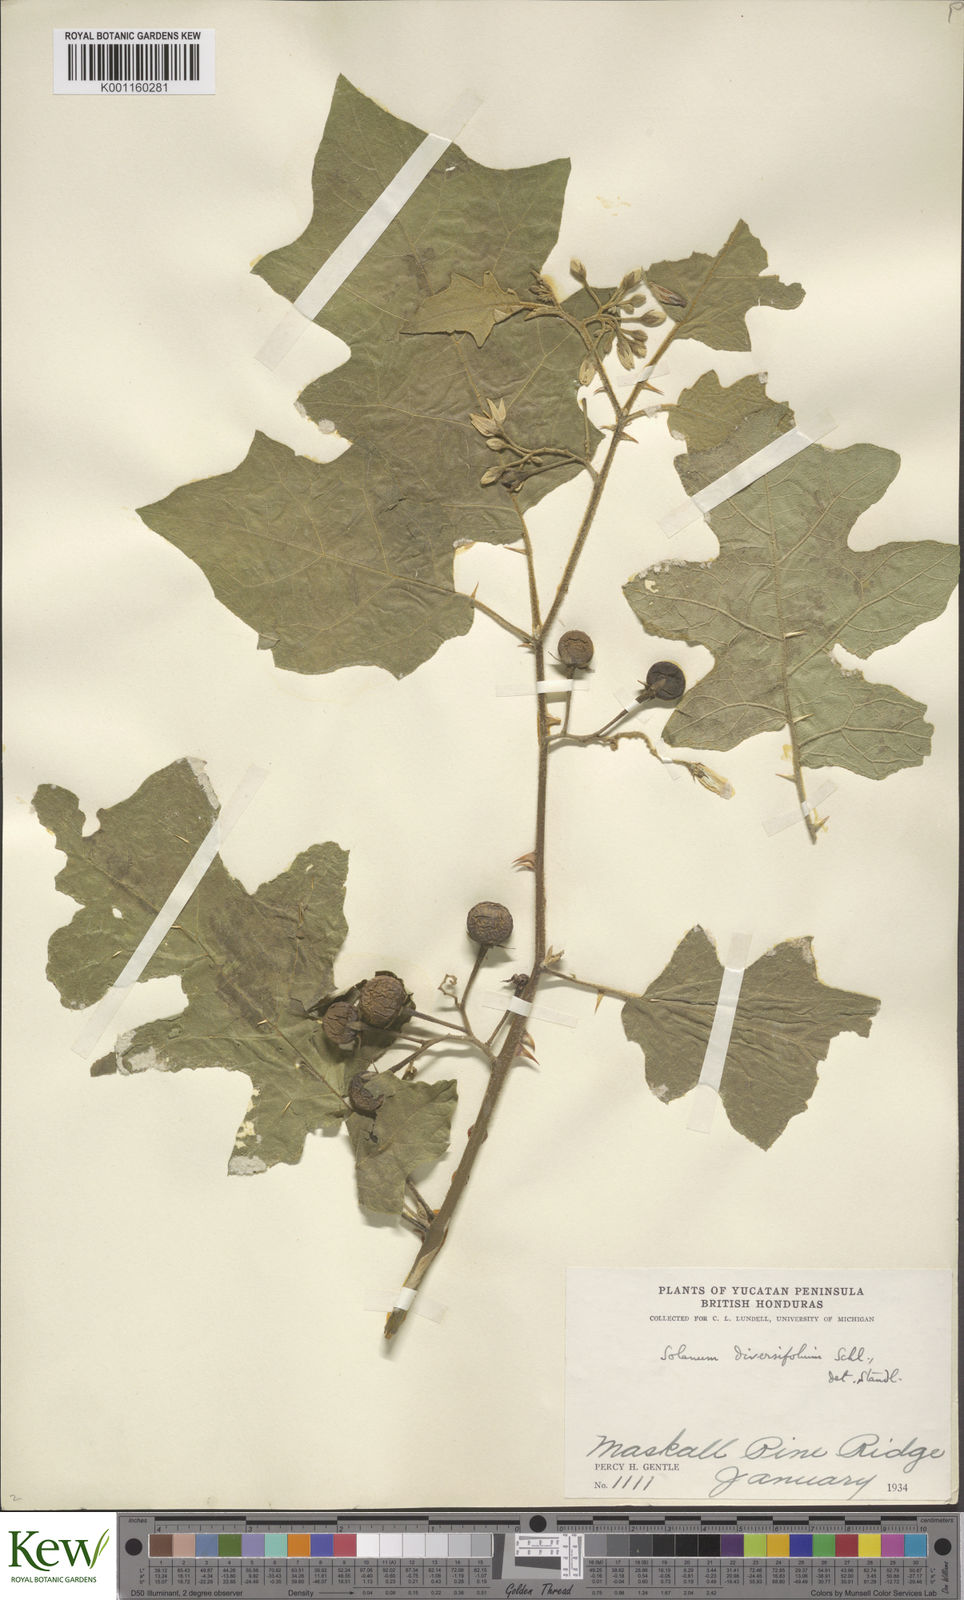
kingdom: Plantae
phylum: Tracheophyta
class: Magnoliopsida
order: Solanales
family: Solanaceae
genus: Solanum
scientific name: Solanum melissarum
